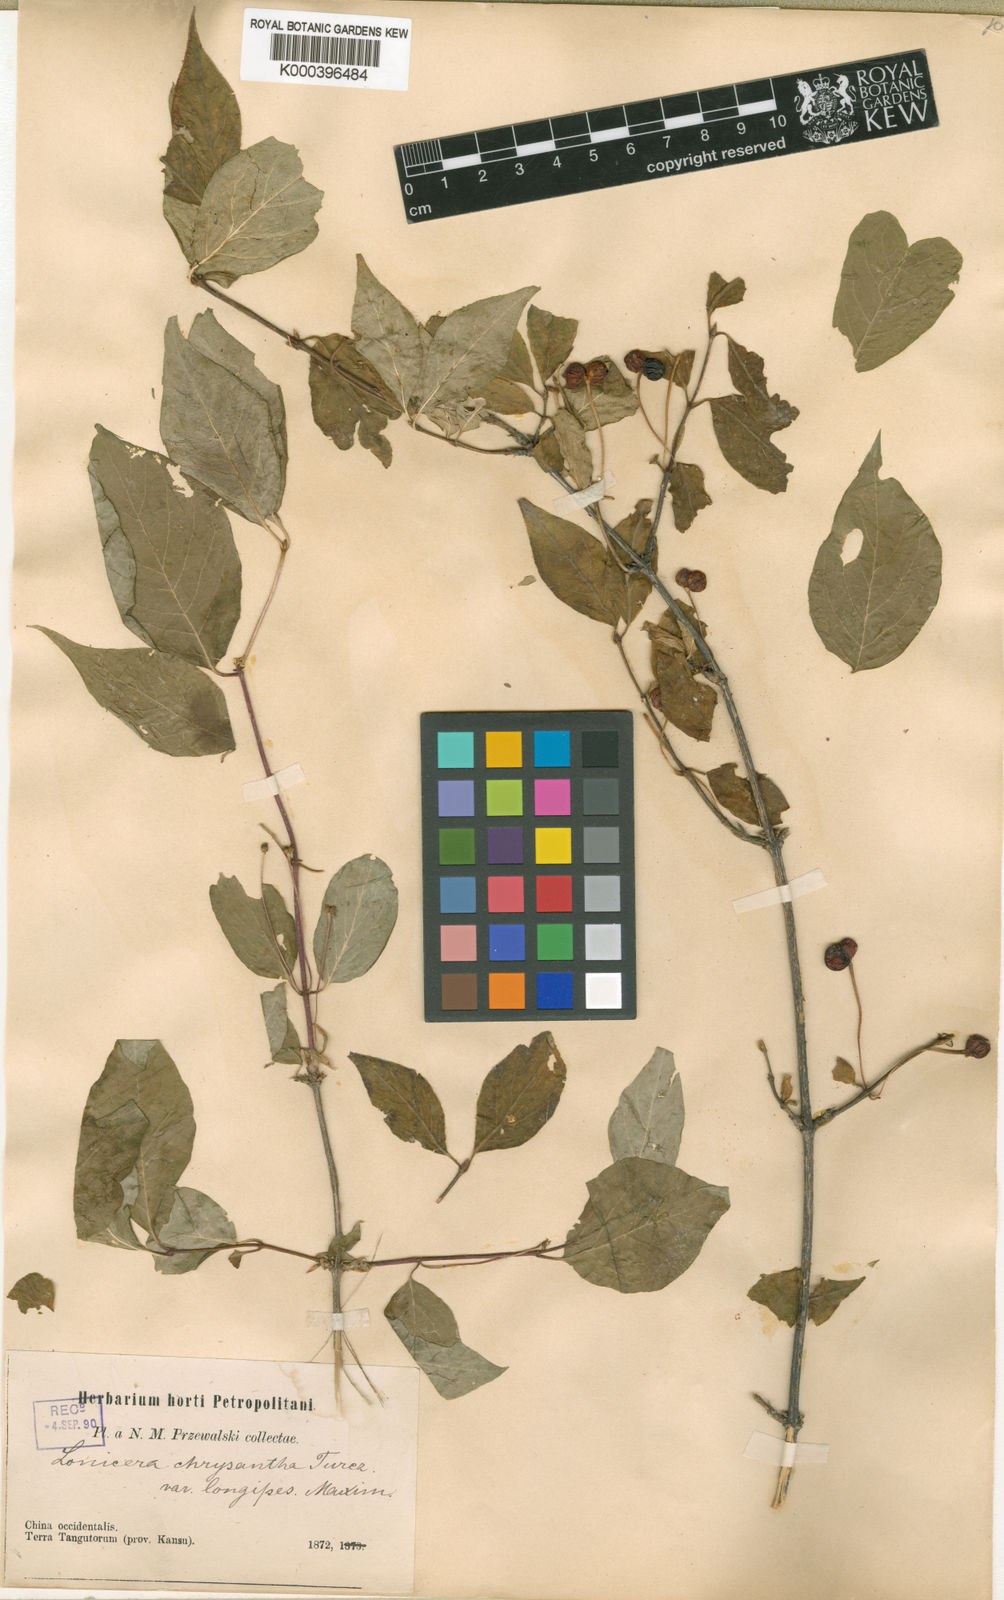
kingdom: Plantae
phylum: Tracheophyta
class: Magnoliopsida
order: Dipsacales
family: Caprifoliaceae
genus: Lonicera
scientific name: Lonicera
